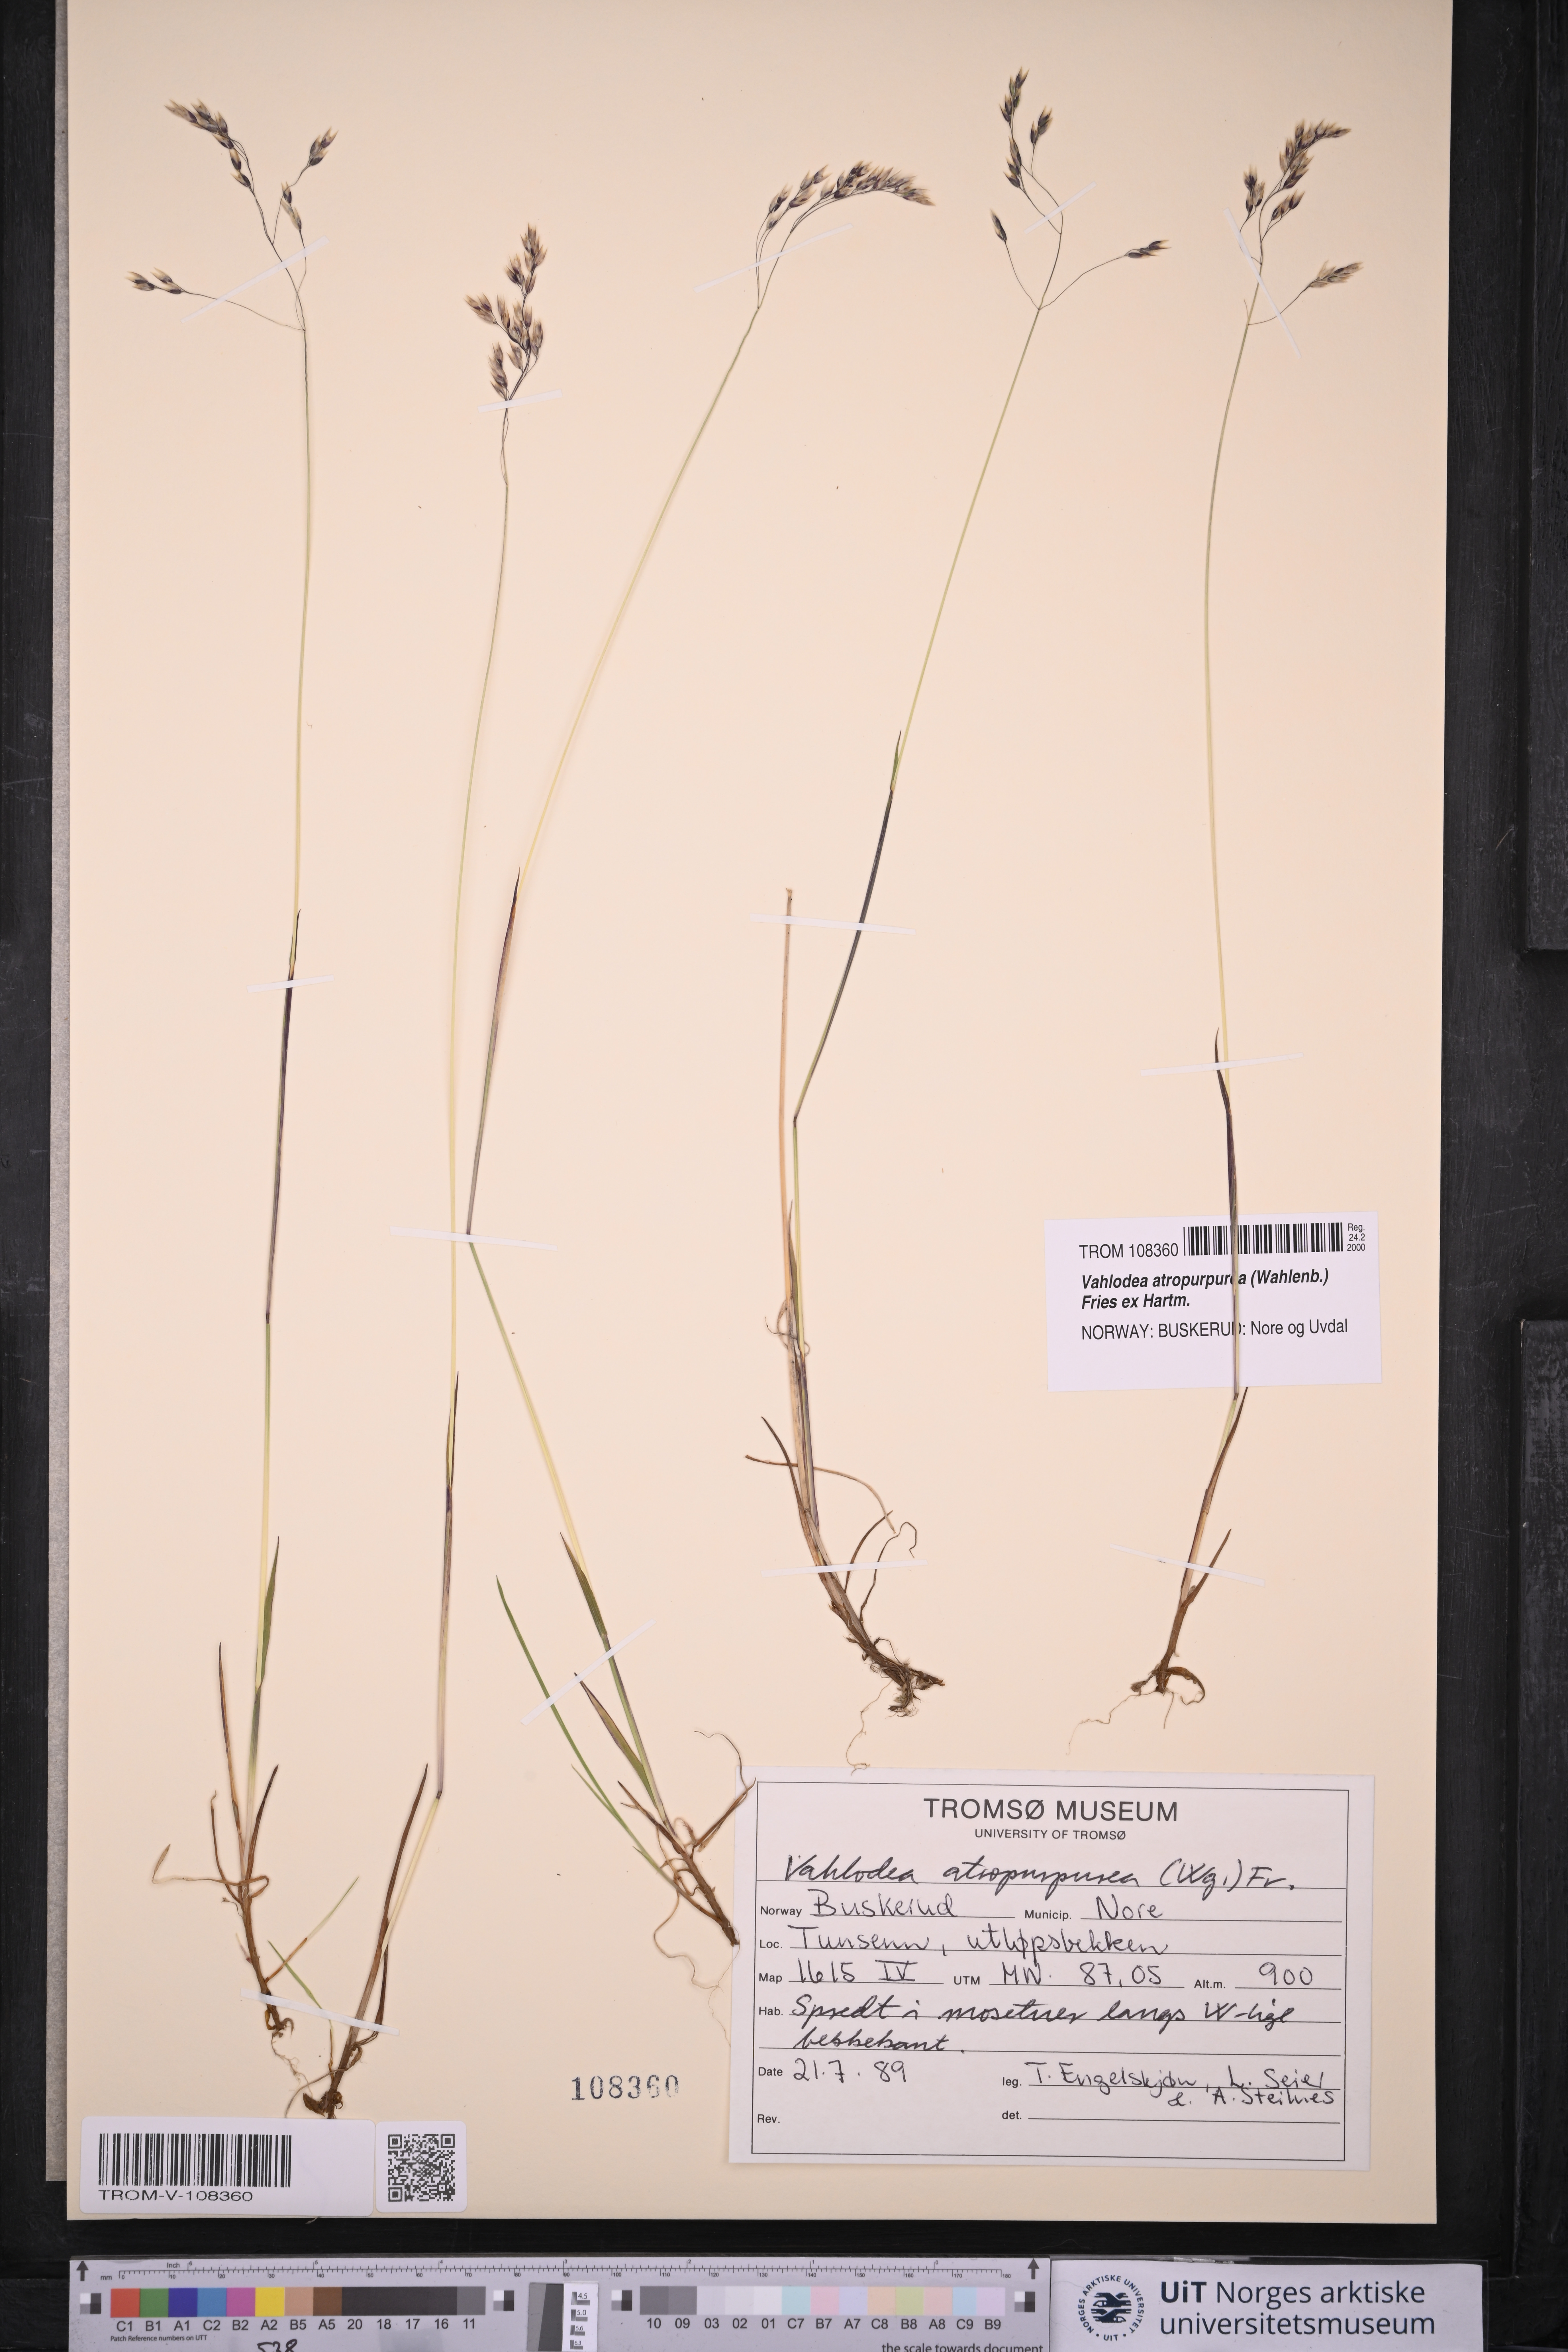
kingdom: Plantae
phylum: Tracheophyta
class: Liliopsida
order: Poales
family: Poaceae
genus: Vahlodea
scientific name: Vahlodea atropurpurea
